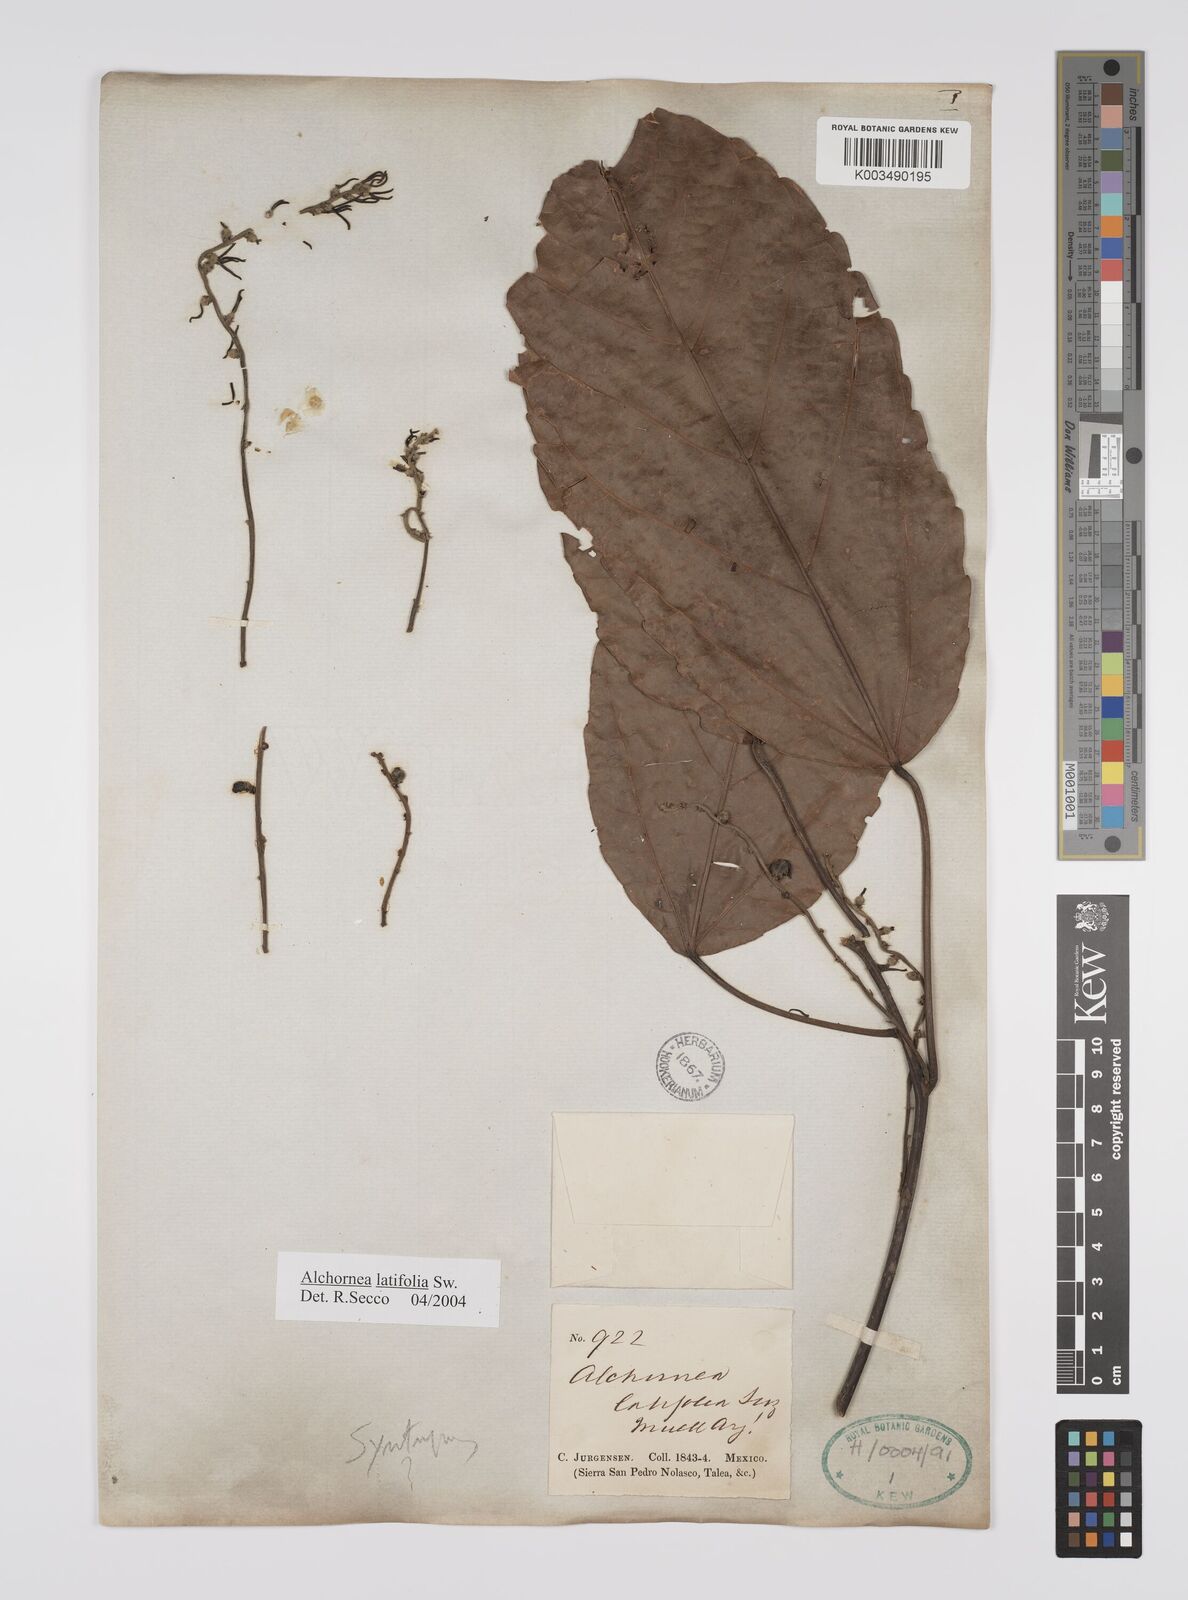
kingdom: Plantae
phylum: Tracheophyta
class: Magnoliopsida
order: Malpighiales
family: Euphorbiaceae
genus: Alchornea
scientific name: Alchornea latifolia
